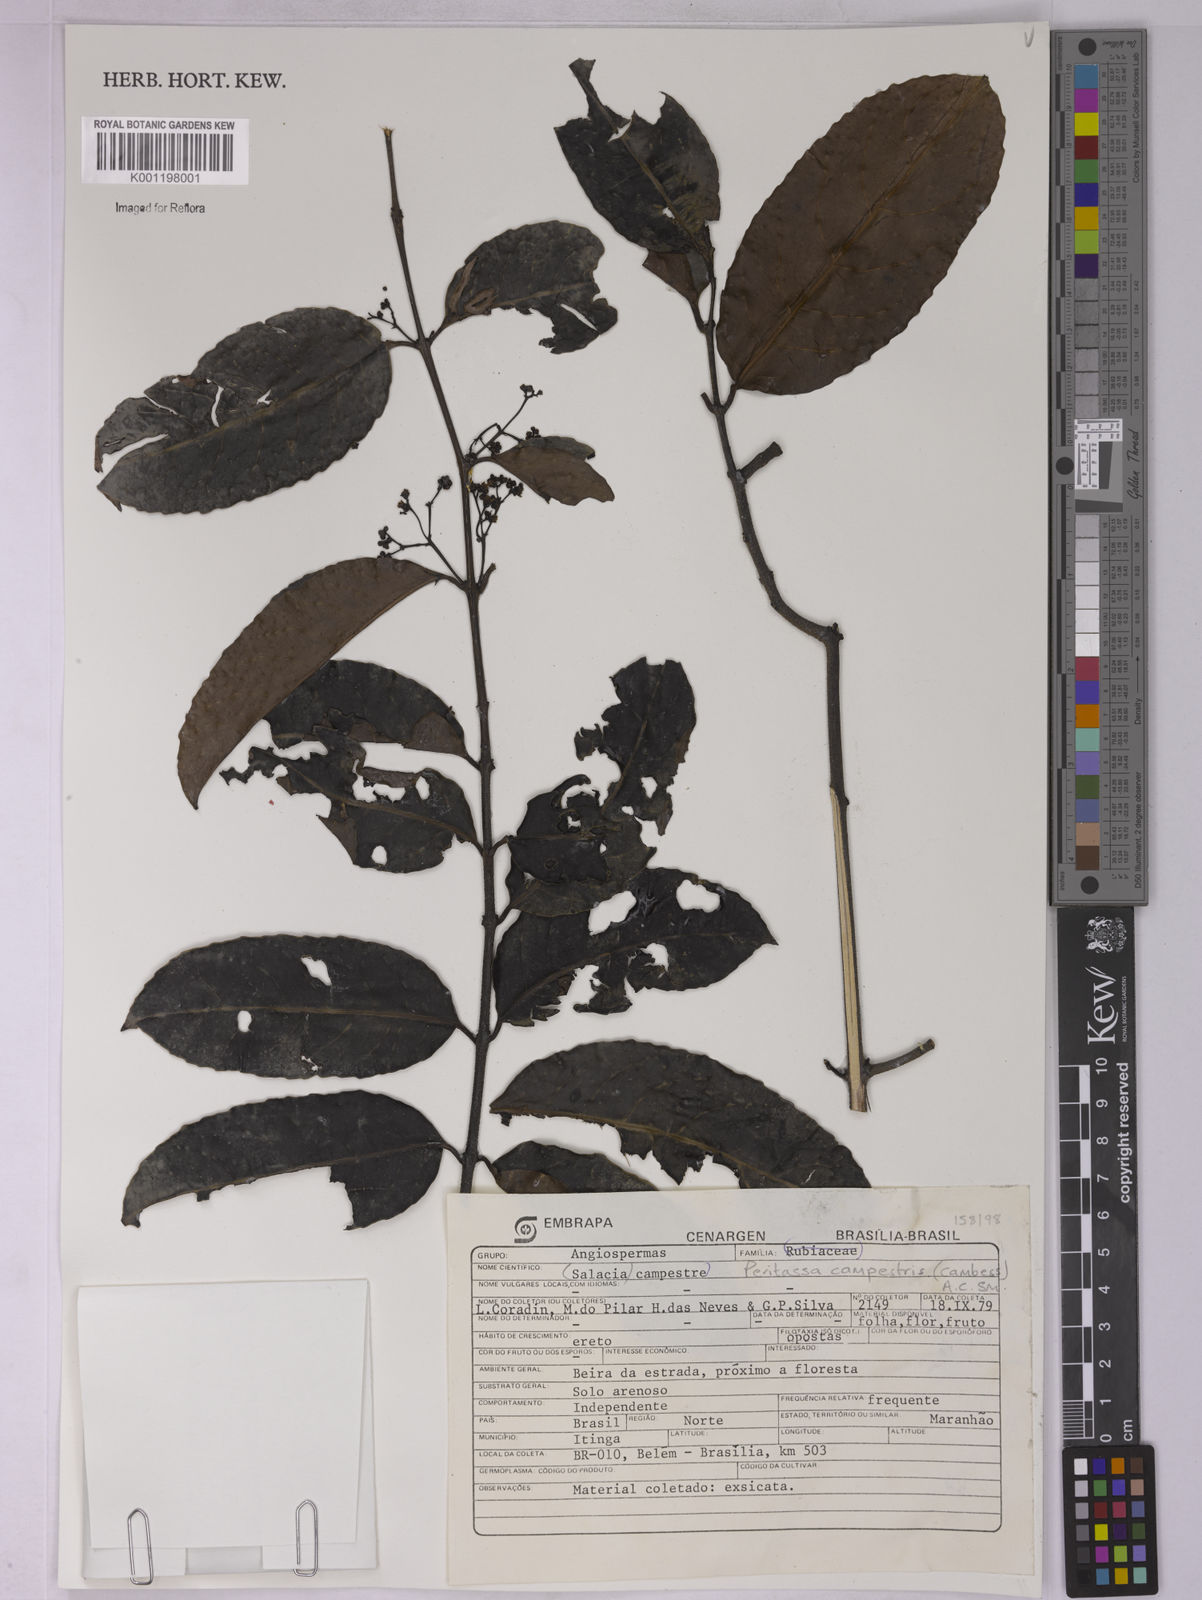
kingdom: Plantae
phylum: Tracheophyta
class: Magnoliopsida
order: Celastrales
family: Celastraceae
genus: Peritassa
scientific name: Peritassa campestris
